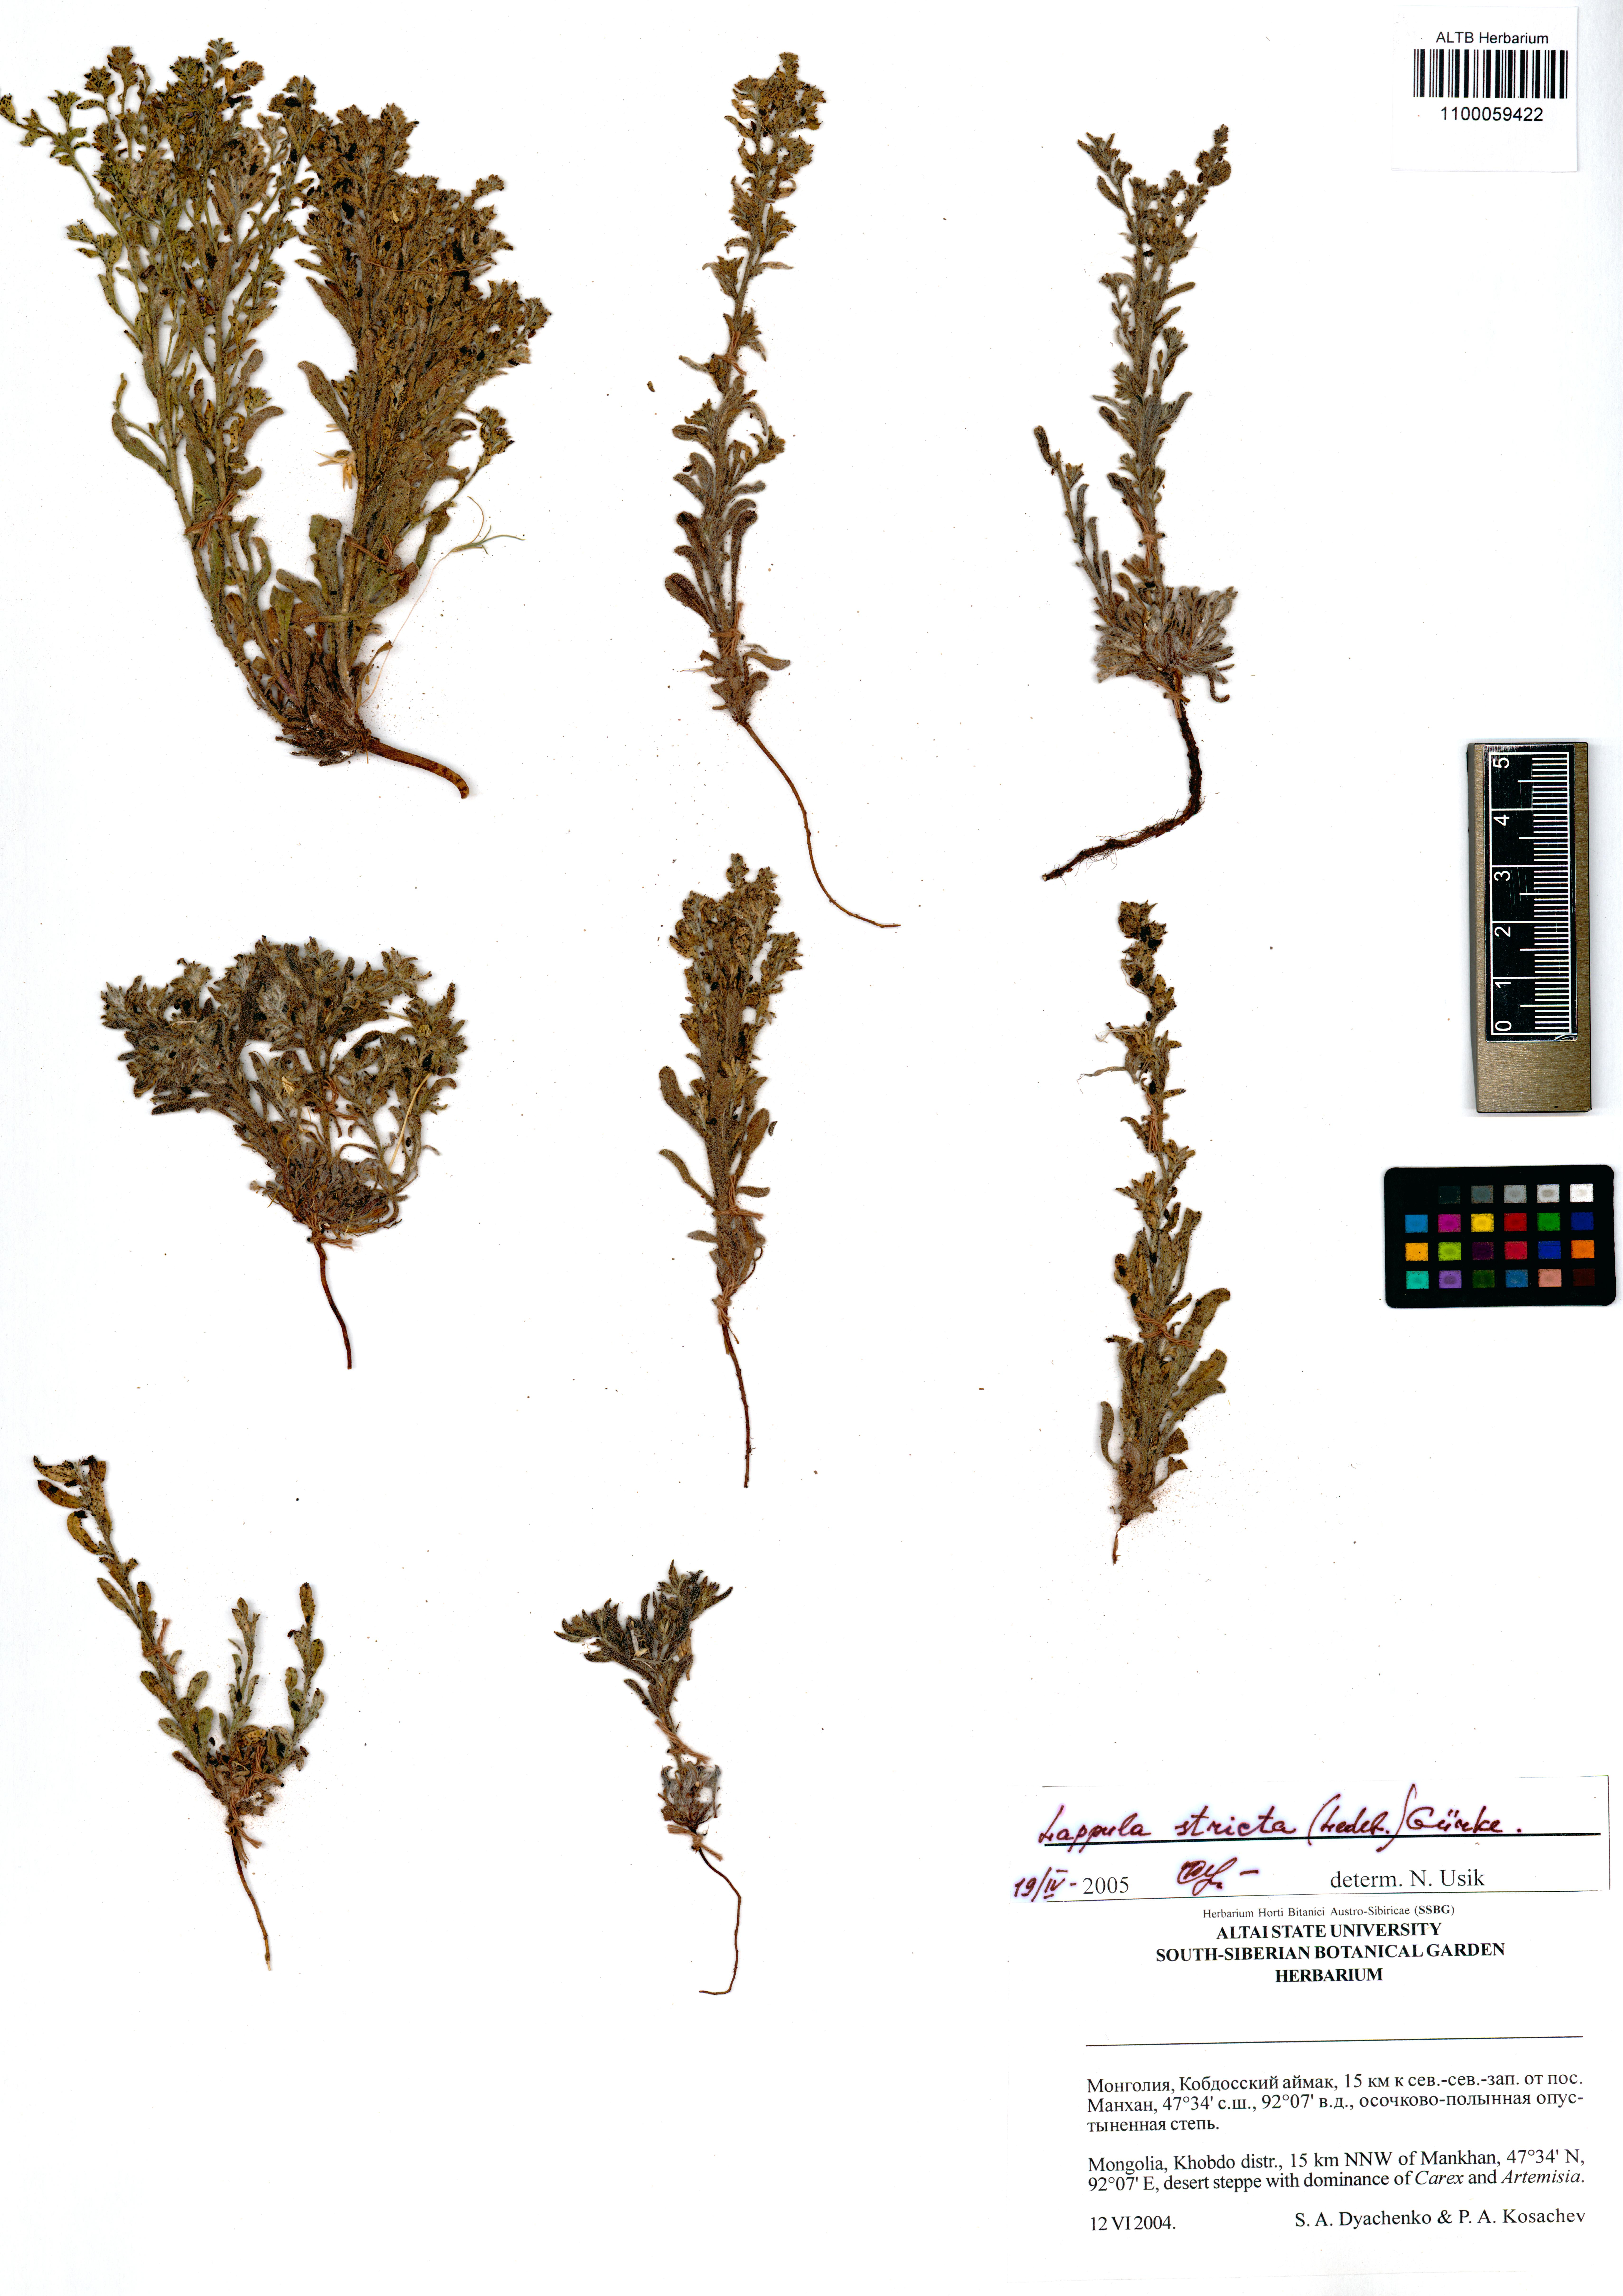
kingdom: Plantae
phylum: Tracheophyta
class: Magnoliopsida
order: Boraginales
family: Boraginaceae
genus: Lappula
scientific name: Lappula stricta
